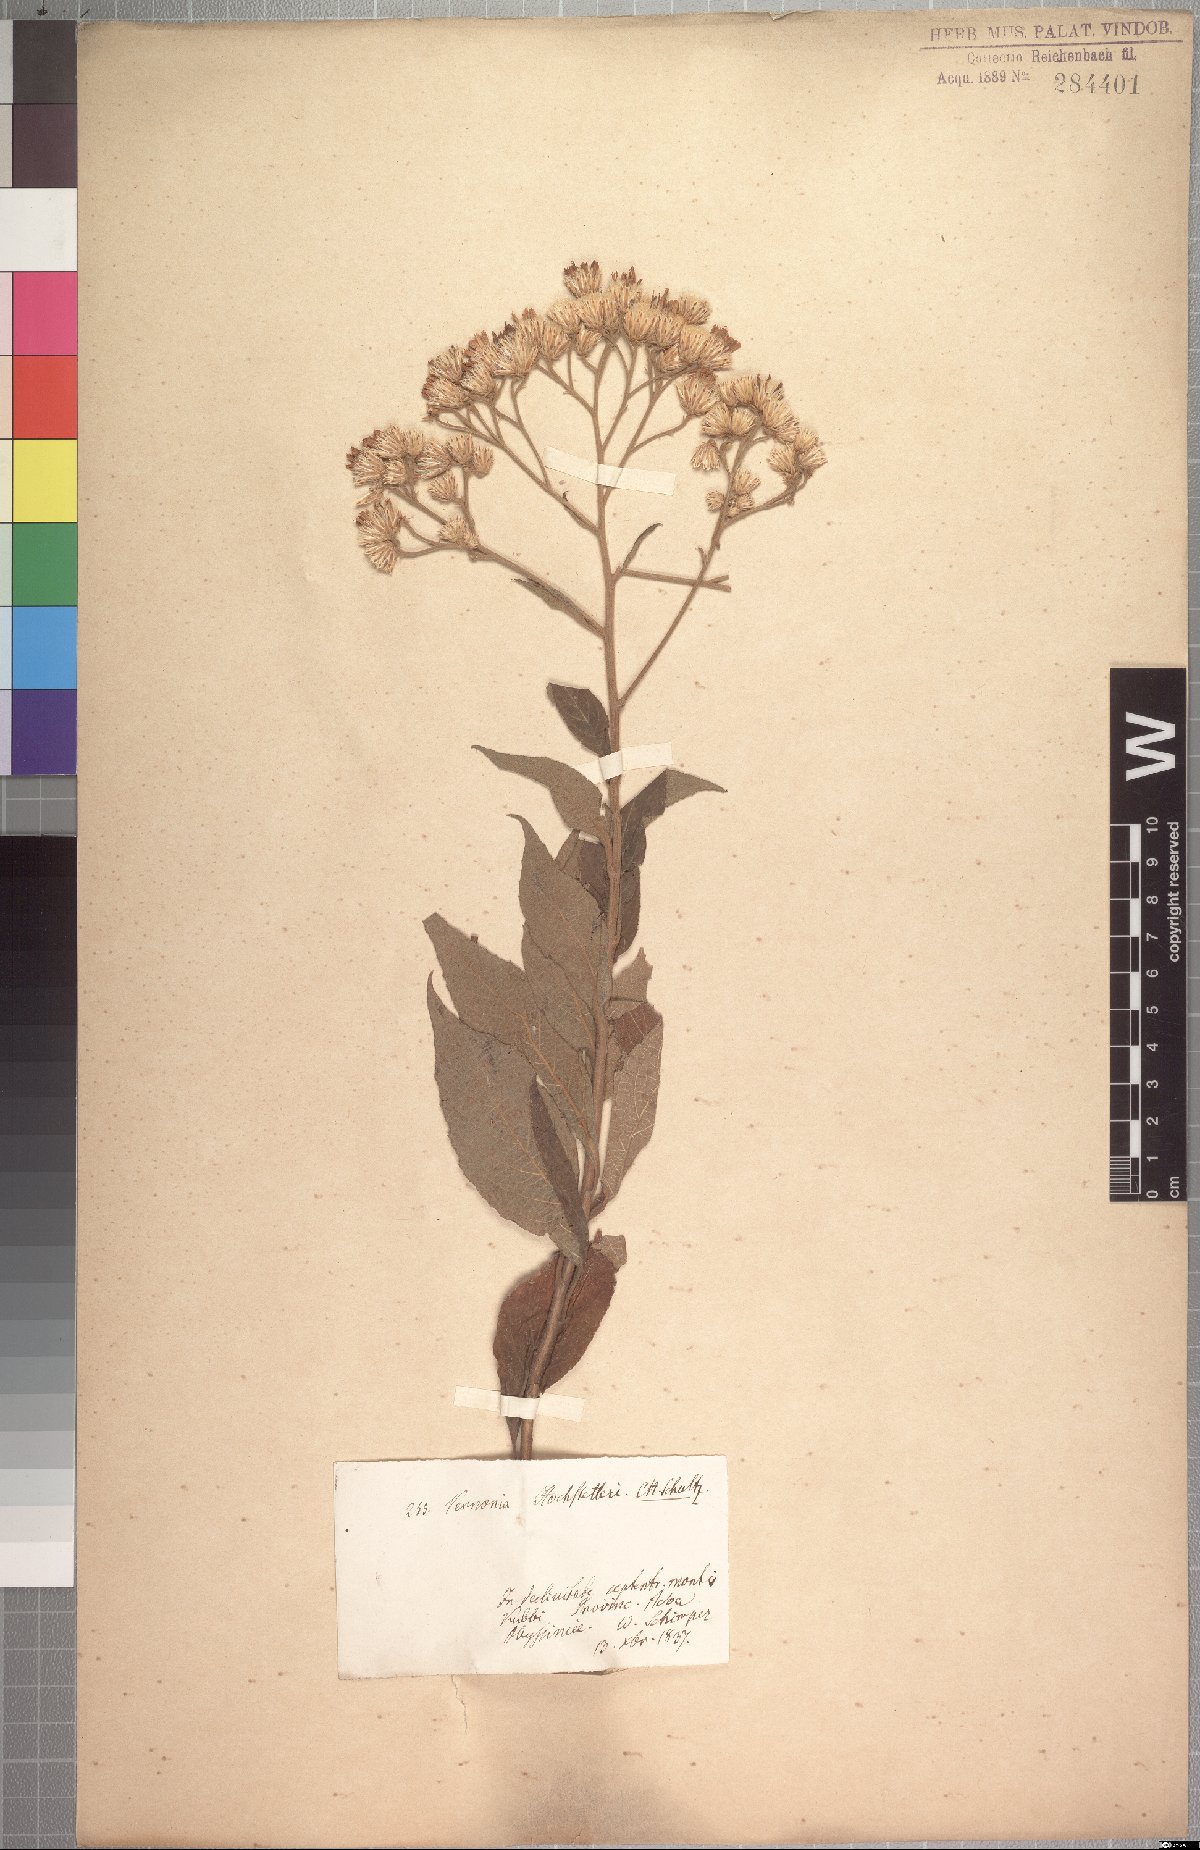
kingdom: Plantae
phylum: Tracheophyta
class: Magnoliopsida
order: Asterales
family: Asteraceae
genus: Vernonia
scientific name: Vernonia hochstetteri
